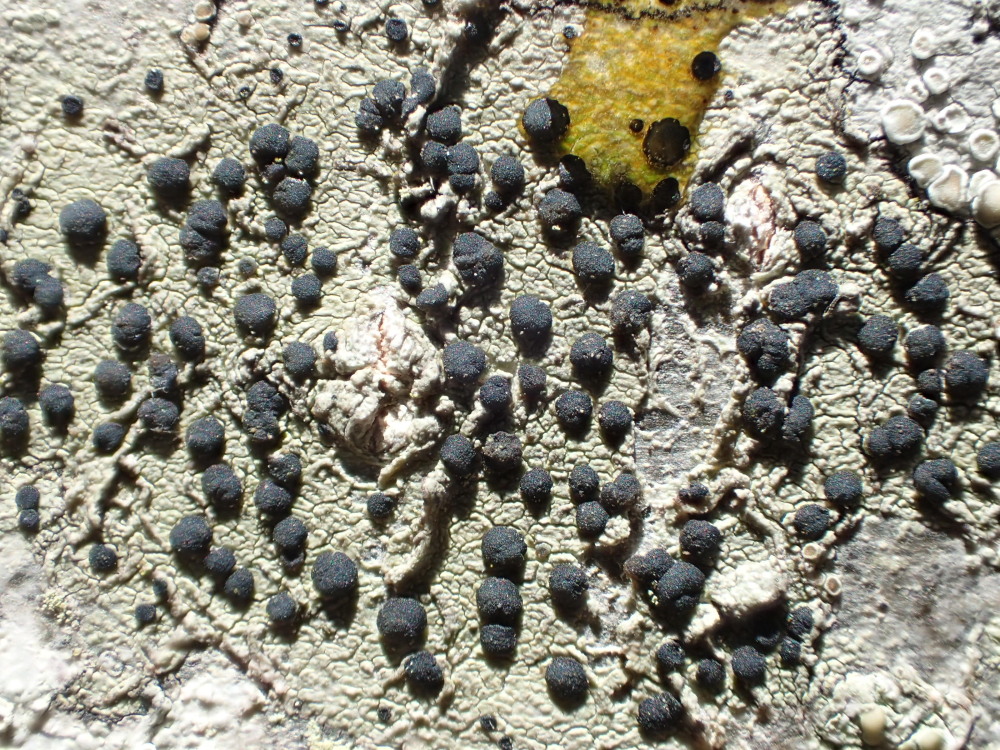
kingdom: Fungi
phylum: Ascomycota
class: Lecanoromycetes
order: Lecanorales
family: Lecanoraceae
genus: Lecidella
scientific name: Lecidella elaeochroma
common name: grågrøn skivelav
